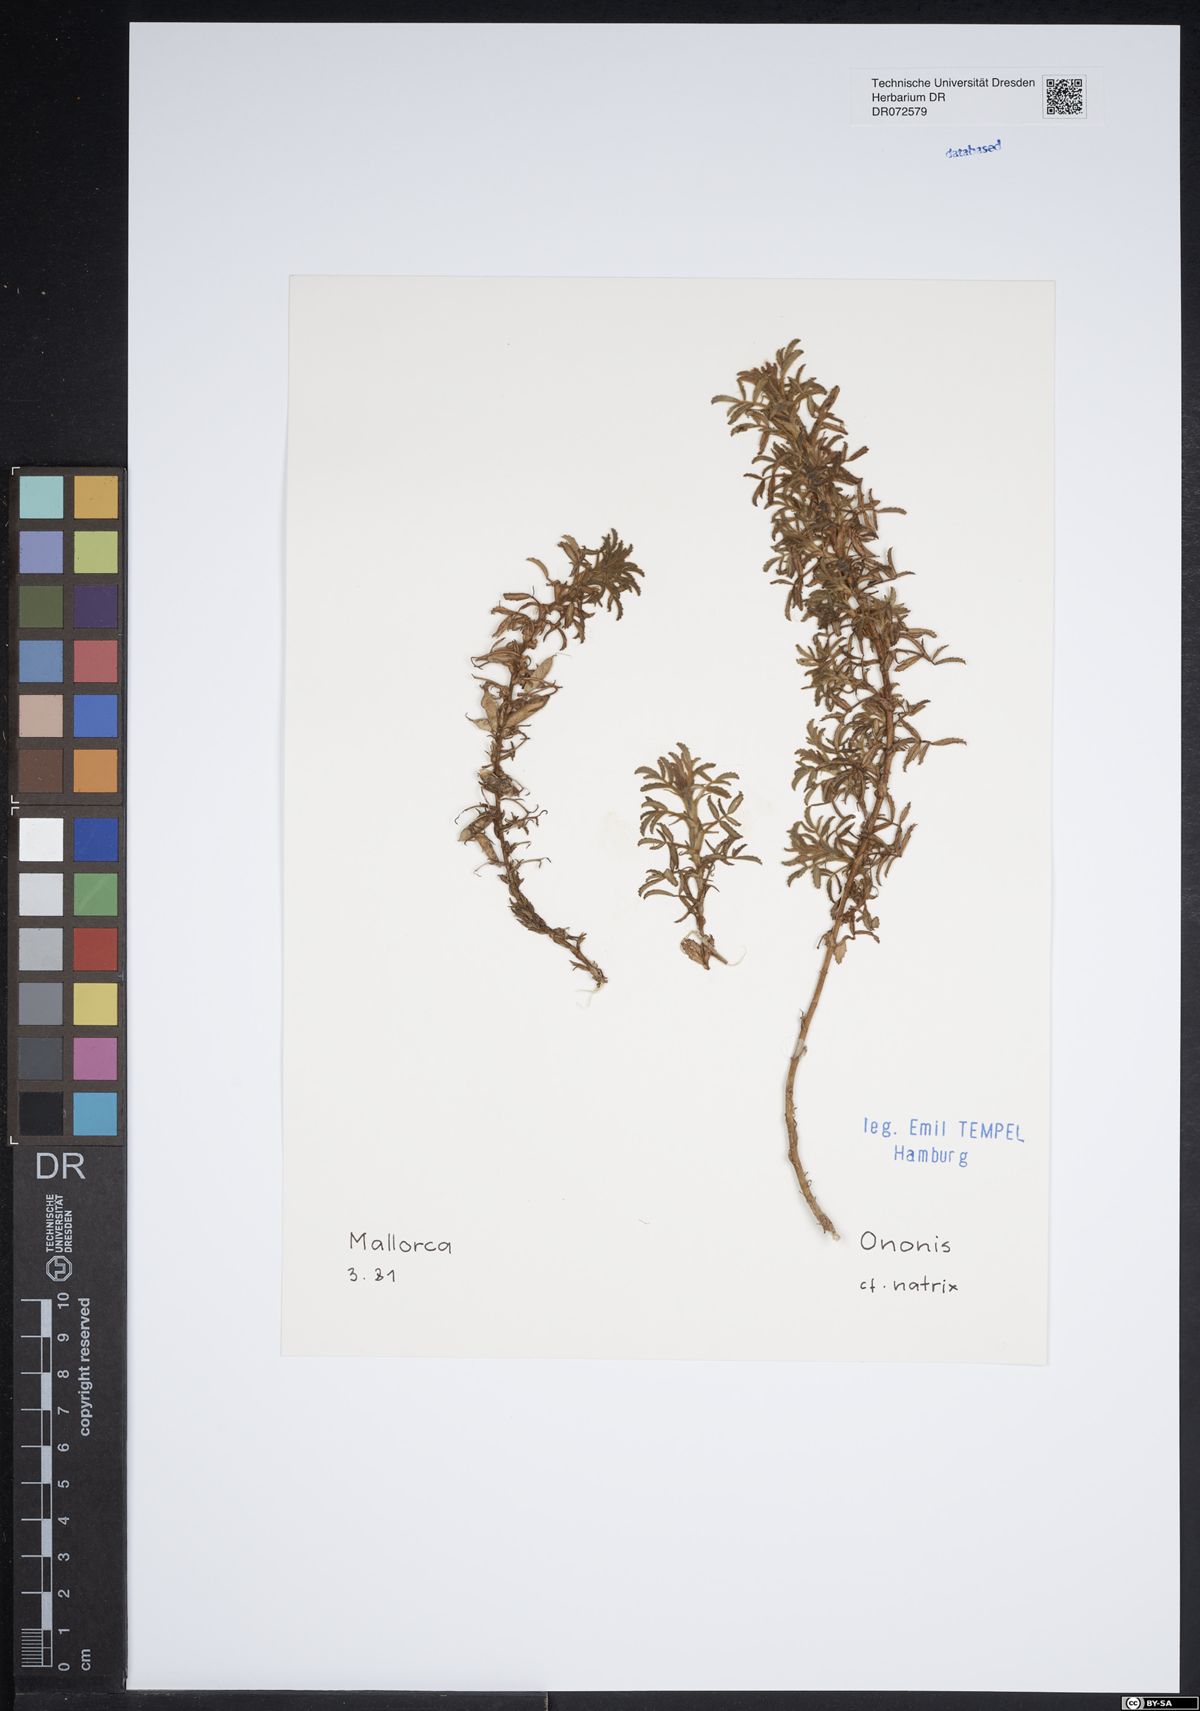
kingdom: Plantae
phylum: Tracheophyta
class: Magnoliopsida
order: Fabales
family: Fabaceae
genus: Ononis
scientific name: Ononis natrix
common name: Yellow restharrow
